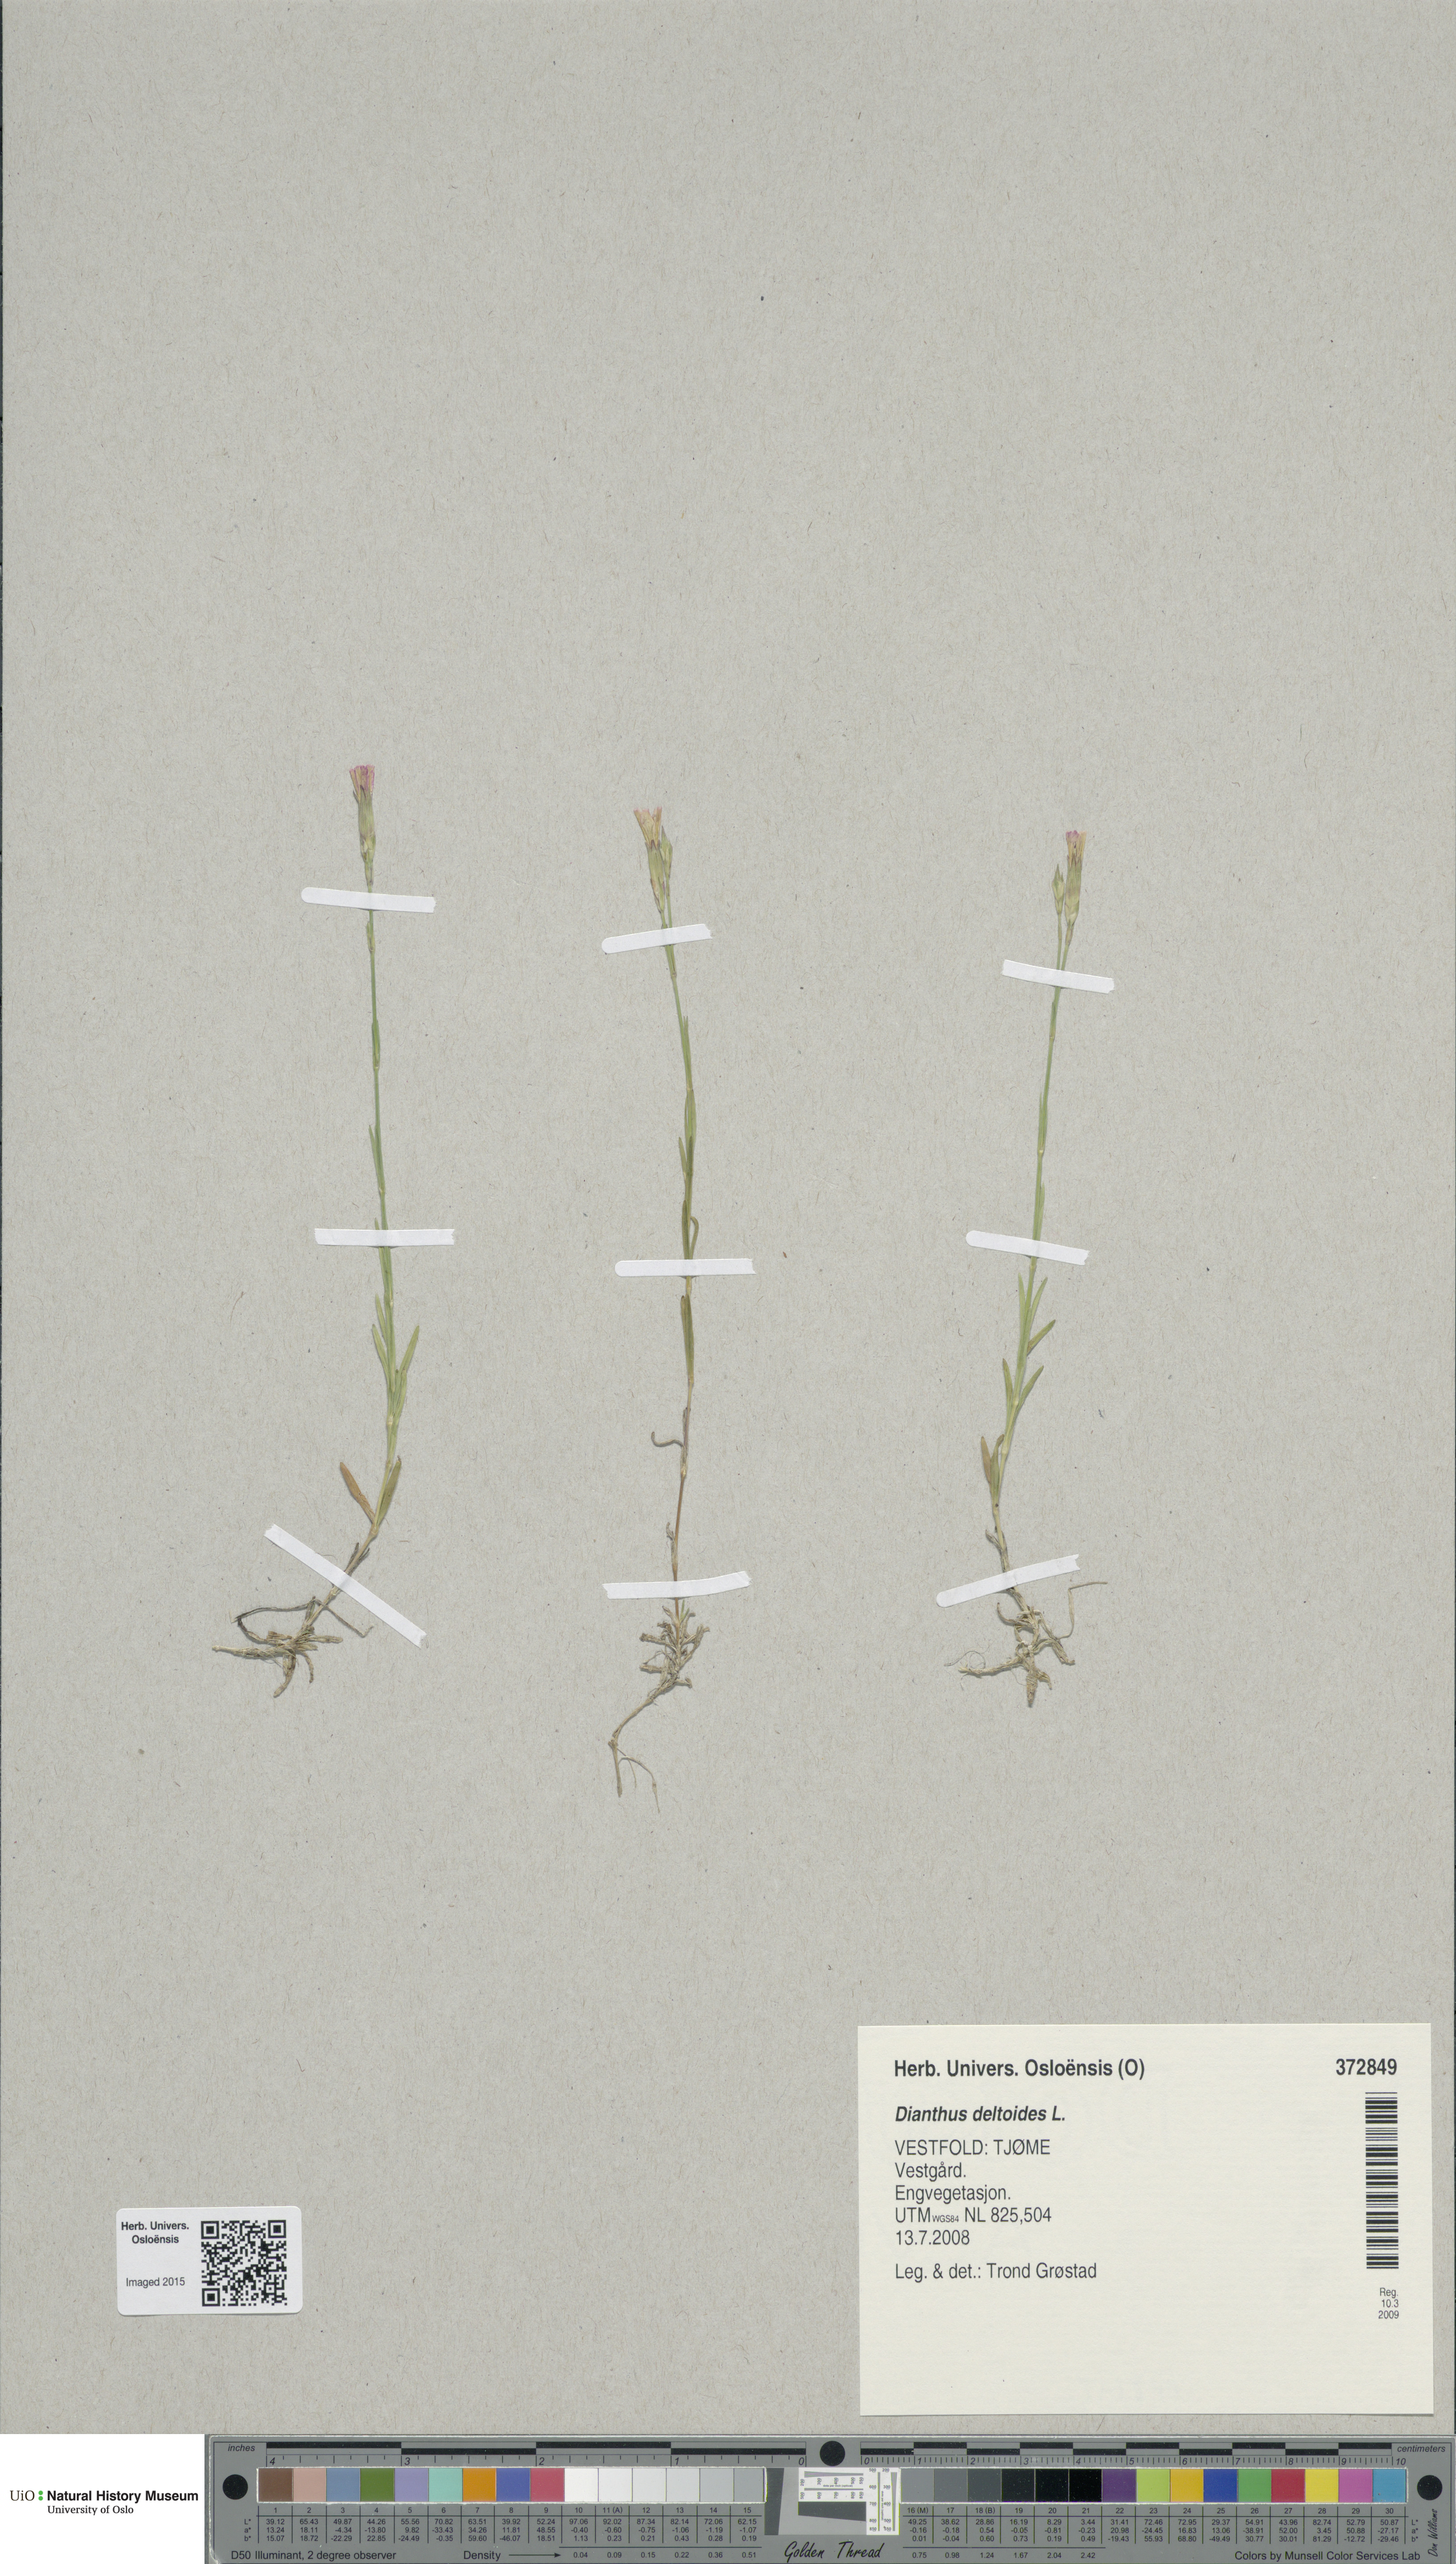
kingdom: Plantae
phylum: Tracheophyta
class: Magnoliopsida
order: Caryophyllales
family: Caryophyllaceae
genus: Dianthus
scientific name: Dianthus deltoides
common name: Maiden pink
